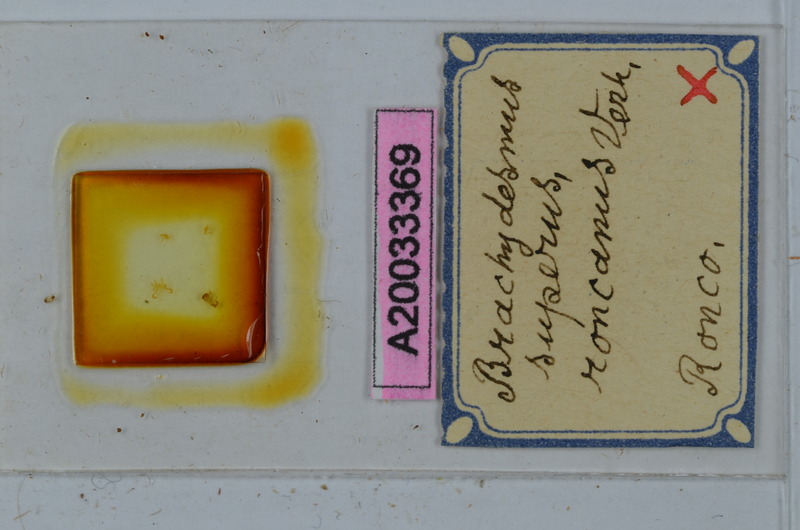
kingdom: Animalia
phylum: Arthropoda
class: Diplopoda
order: Polydesmida
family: Polydesmidae
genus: Brachydesmus
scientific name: Brachydesmus superus
